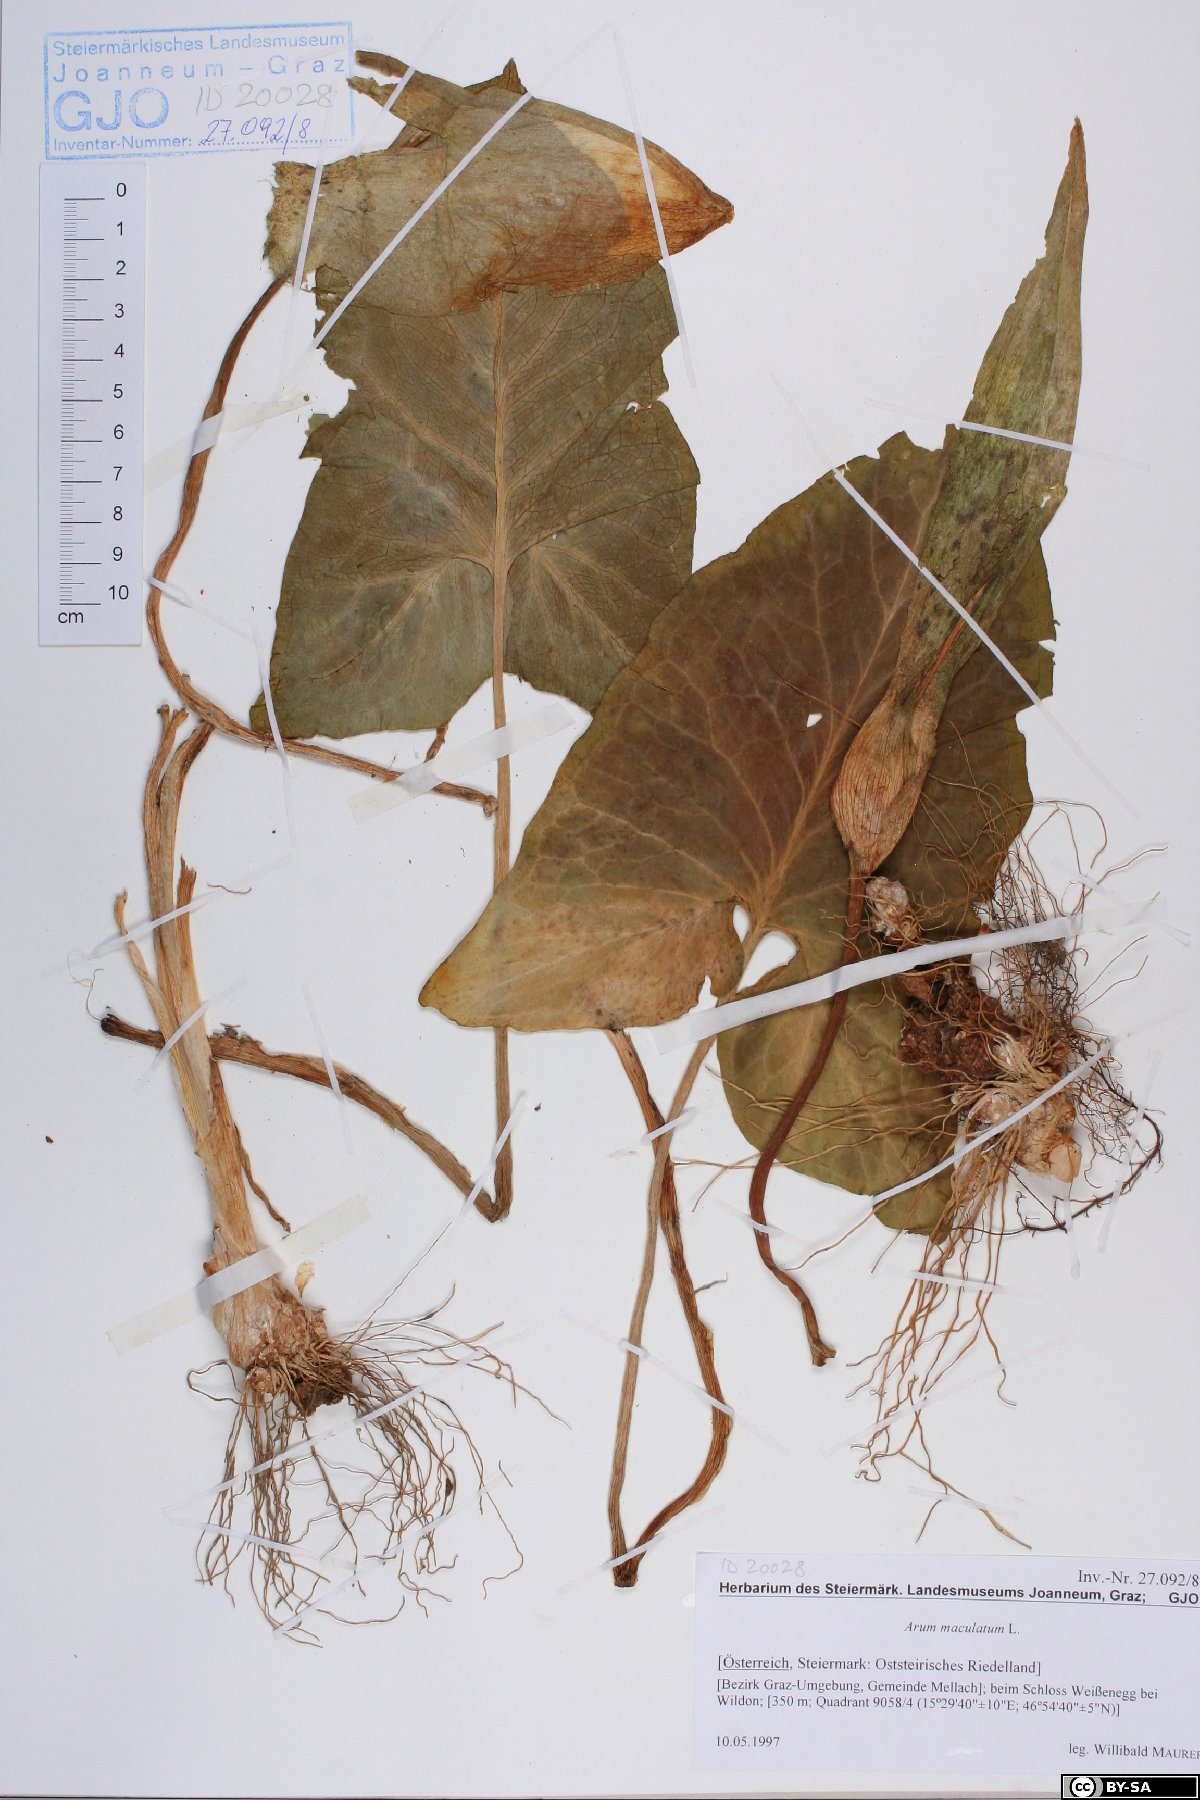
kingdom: Plantae
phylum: Tracheophyta
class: Liliopsida
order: Alismatales
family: Araceae
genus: Arum
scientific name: Arum maculatum
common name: Lords-and-ladies
